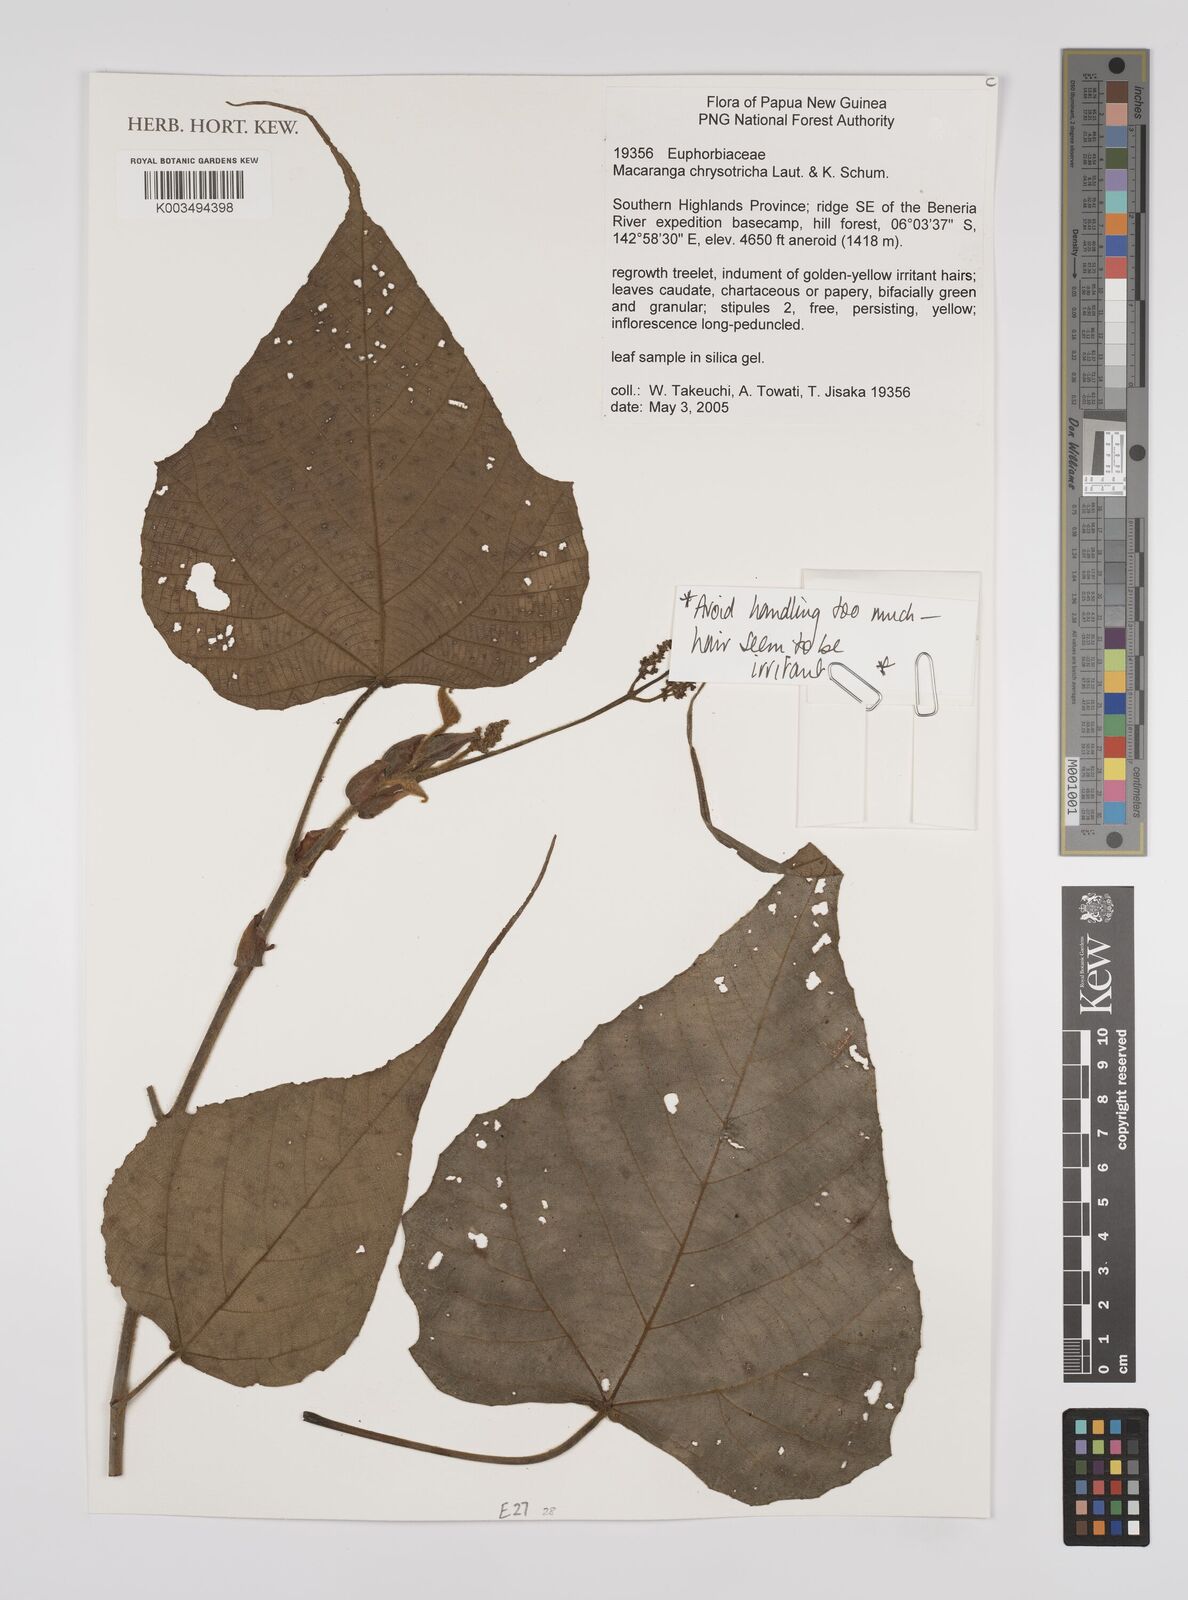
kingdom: Plantae
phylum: Tracheophyta
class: Magnoliopsida
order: Malpighiales
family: Euphorbiaceae
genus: Macaranga
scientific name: Macaranga chrysotricha
